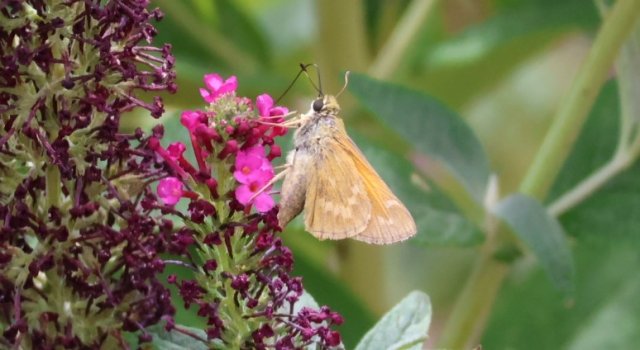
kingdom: Animalia
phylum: Arthropoda
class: Insecta
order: Lepidoptera
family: Hesperiidae
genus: Yvretta
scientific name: Yvretta carus
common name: Carus Skipper
